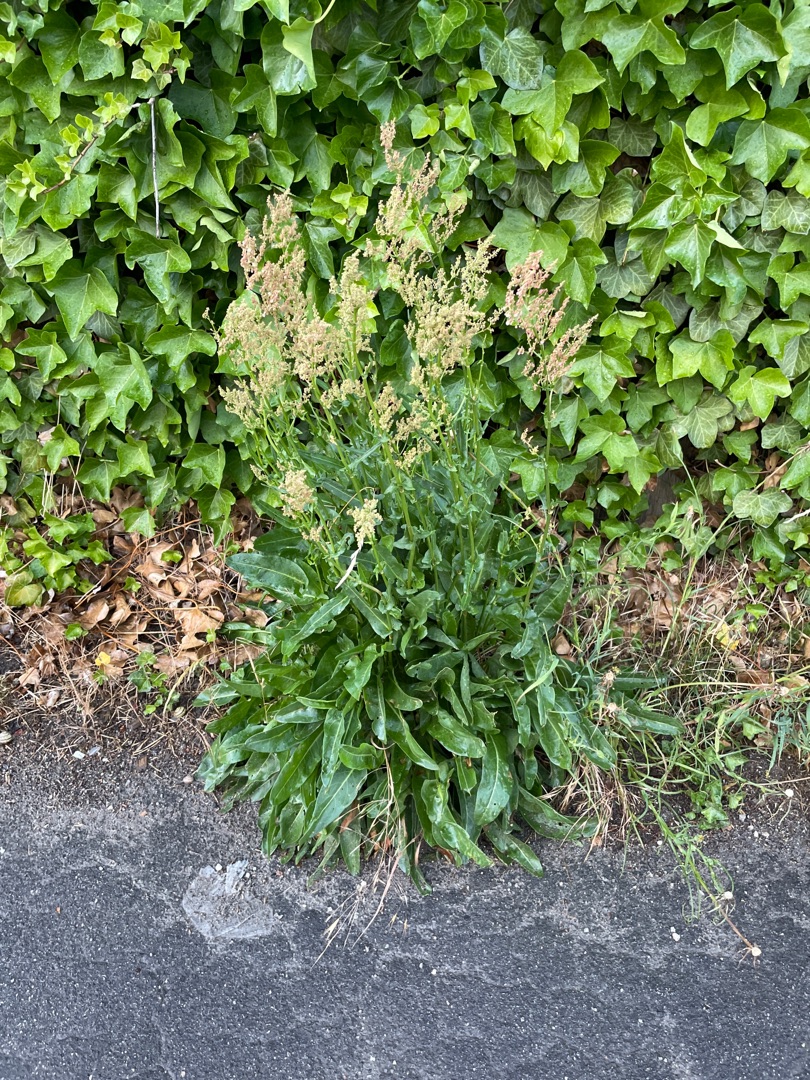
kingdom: Plantae
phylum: Tracheophyta
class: Magnoliopsida
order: Caryophyllales
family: Polygonaceae
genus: Rumex
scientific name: Rumex thyrsiflorus
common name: Dusk-syre
